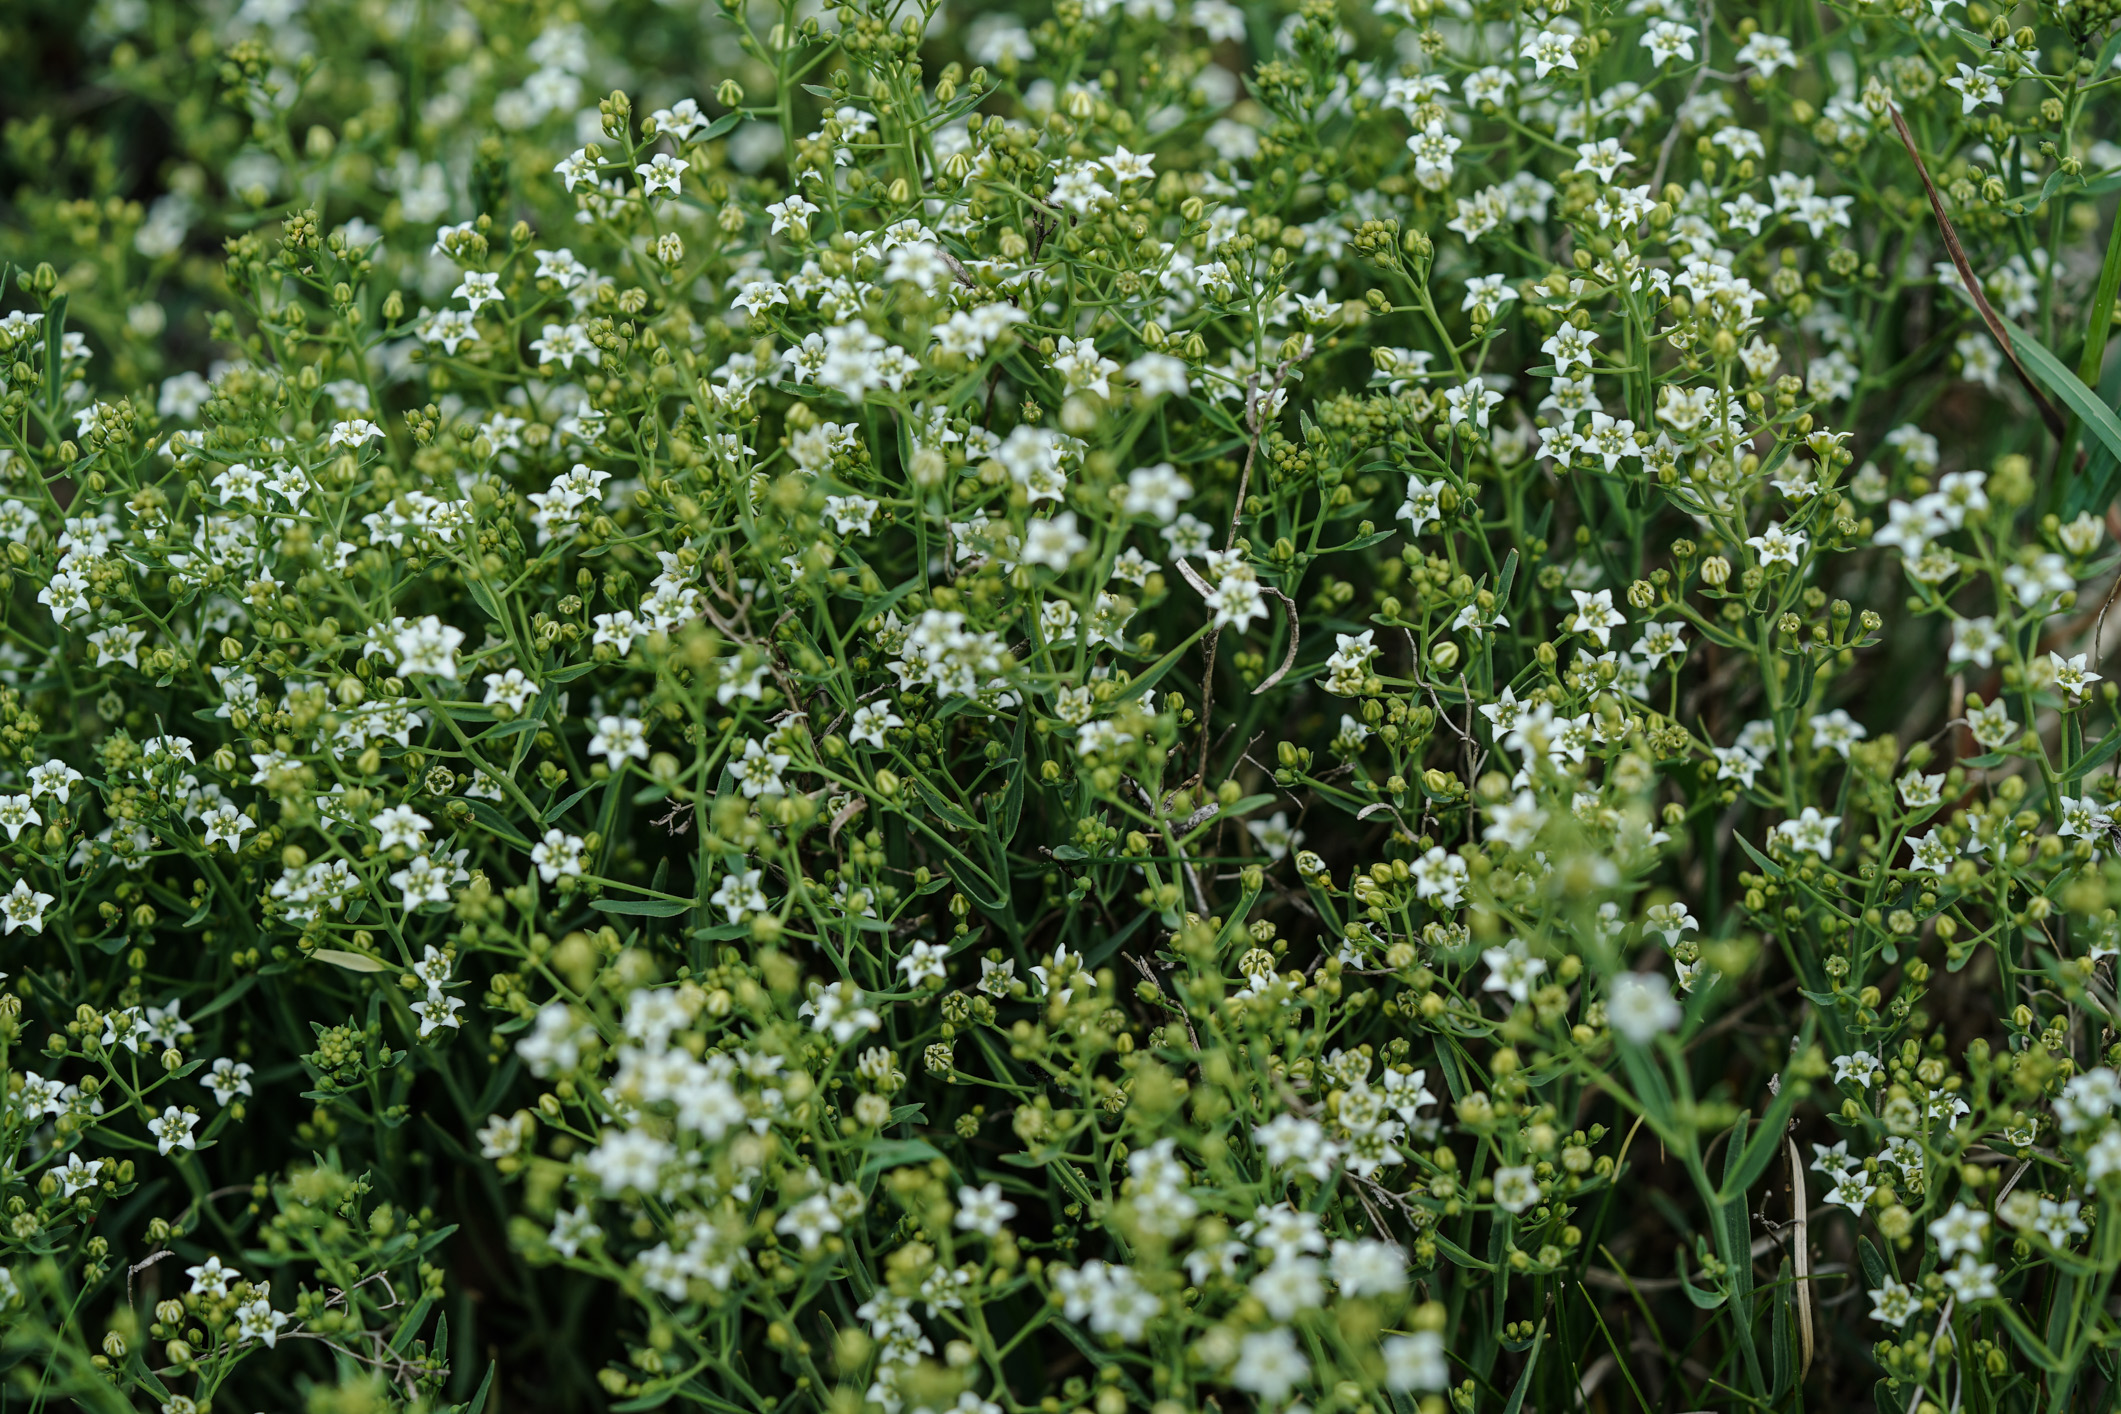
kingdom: Plantae
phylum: Tracheophyta
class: Magnoliopsida
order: Santalales
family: Thesiaceae
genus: Thesium
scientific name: Thesium linophyllon
